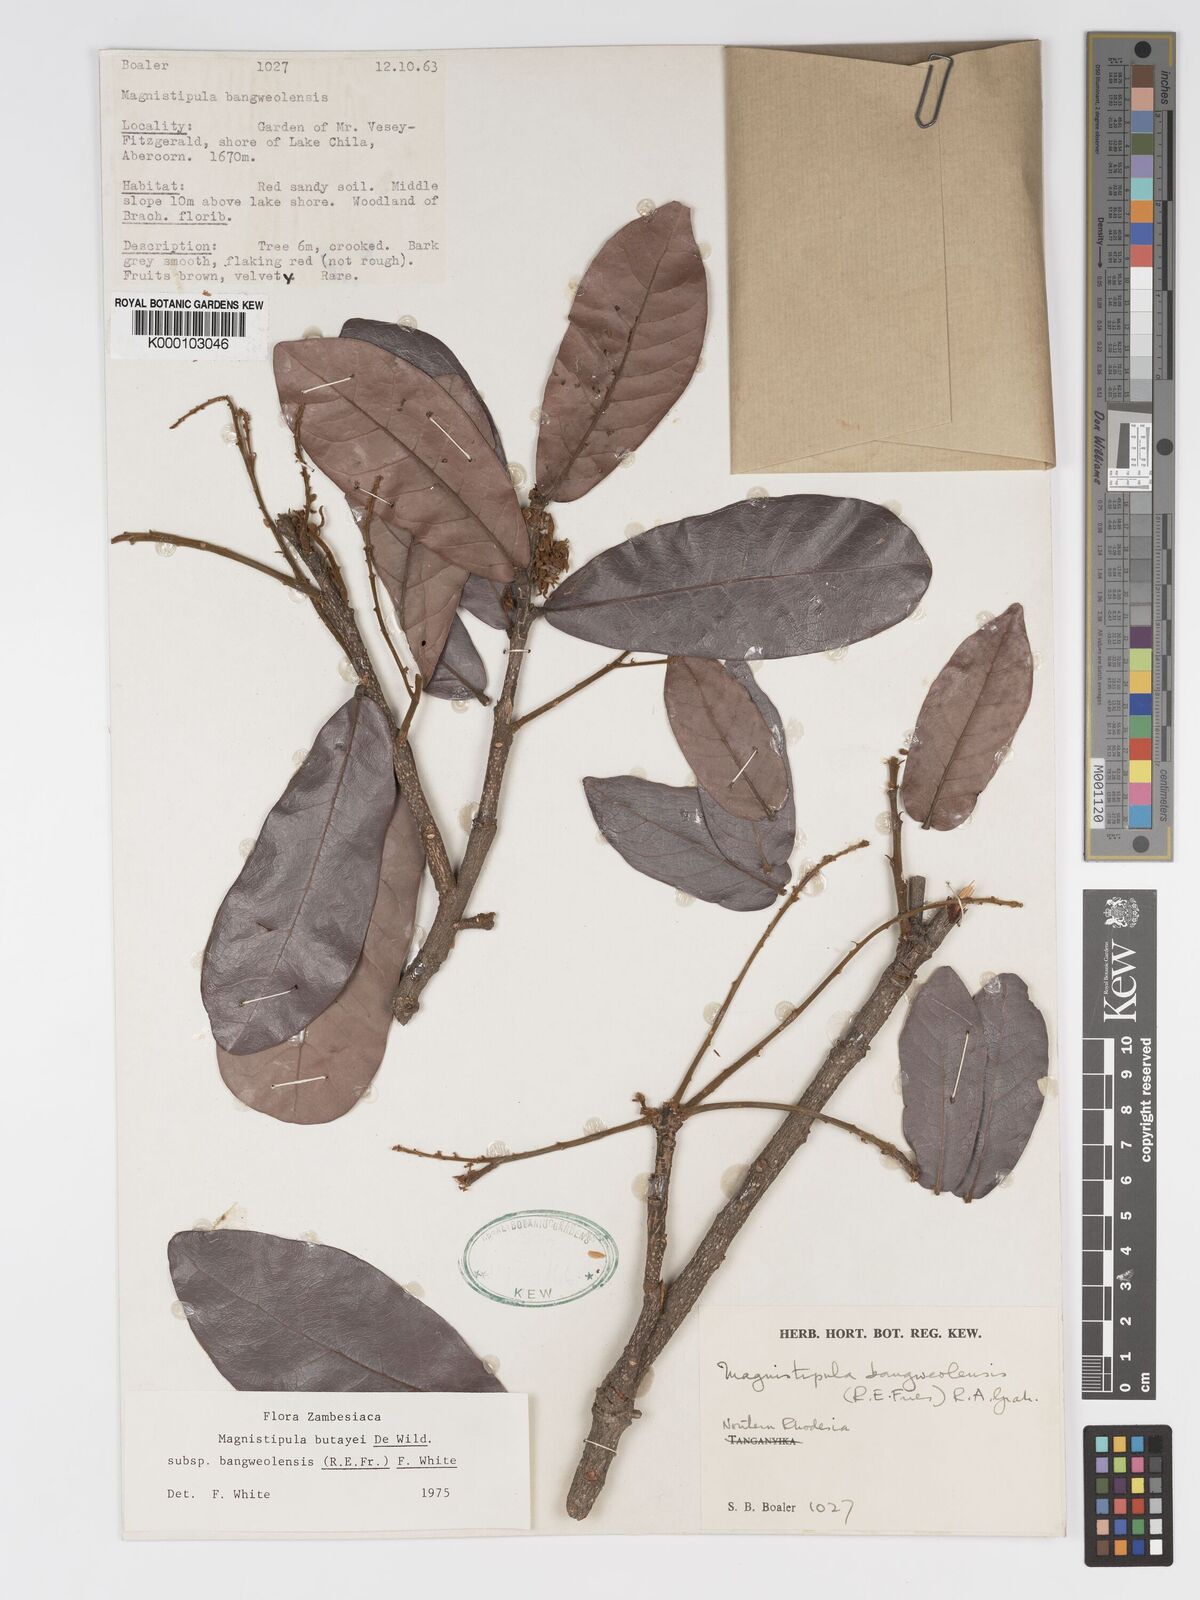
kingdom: Plantae
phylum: Tracheophyta
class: Magnoliopsida
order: Malpighiales
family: Chrysobalanaceae
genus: Magnistipula
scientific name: Magnistipula butayei
